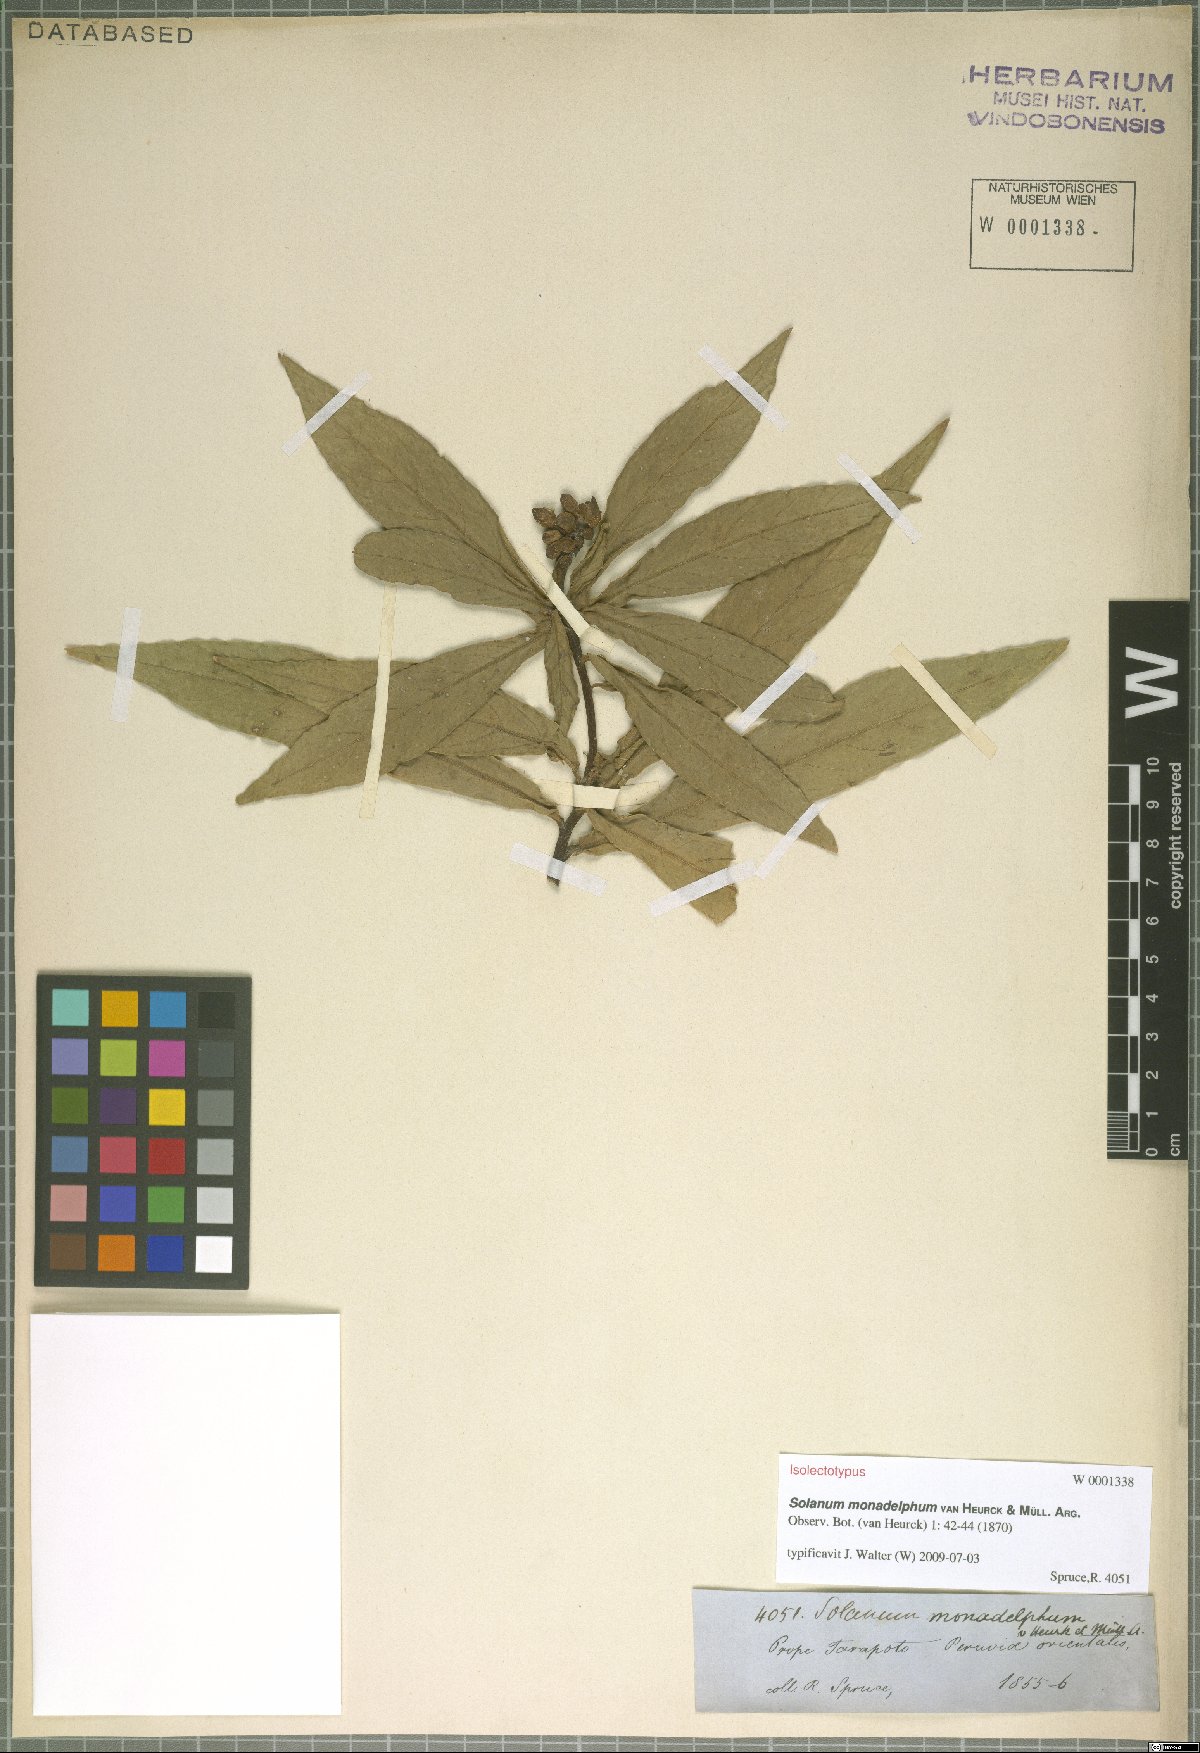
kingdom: Plantae
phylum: Tracheophyta
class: Magnoliopsida
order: Solanales
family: Solanaceae
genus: Solanum
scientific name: Solanum monadelphum
